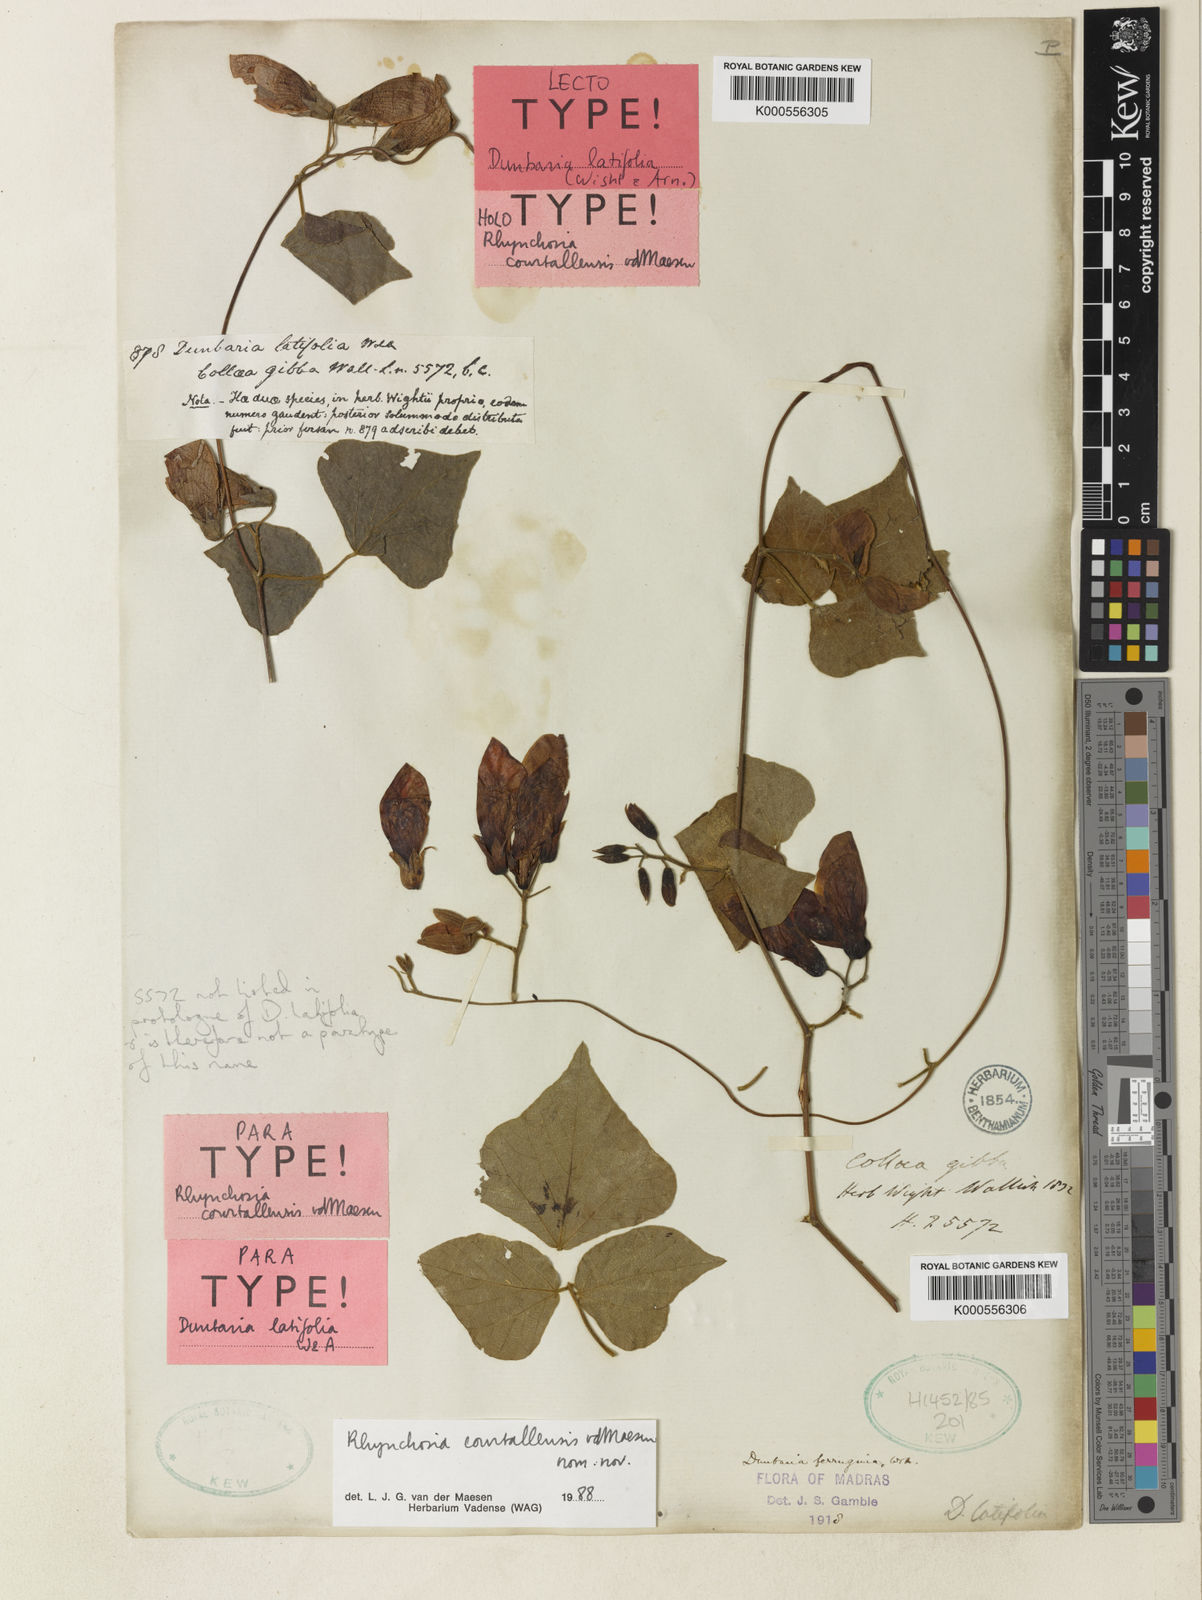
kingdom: Plantae
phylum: Tracheophyta
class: Magnoliopsida
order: Fabales
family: Fabaceae
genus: Dunbaria
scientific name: Dunbaria ferruginea
